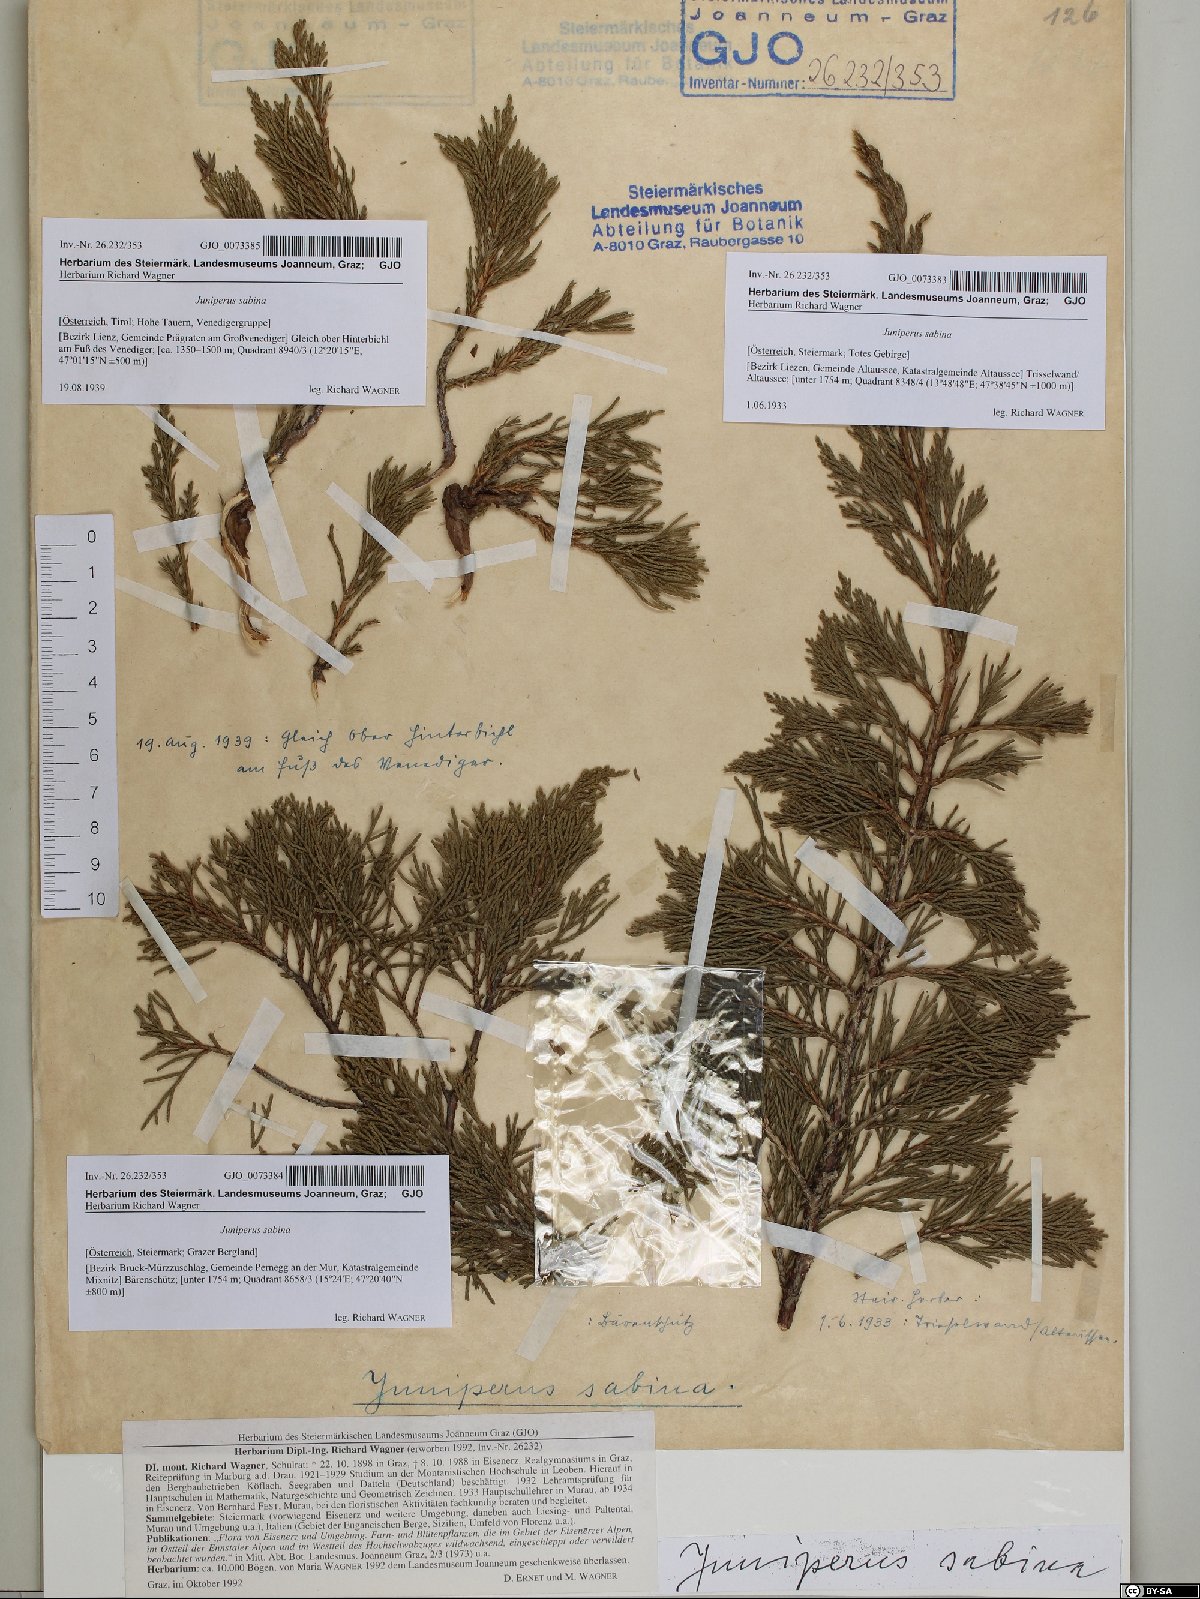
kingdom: Plantae
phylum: Tracheophyta
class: Pinopsida
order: Pinales
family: Cupressaceae
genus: Juniperus
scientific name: Juniperus sabina
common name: Savin
